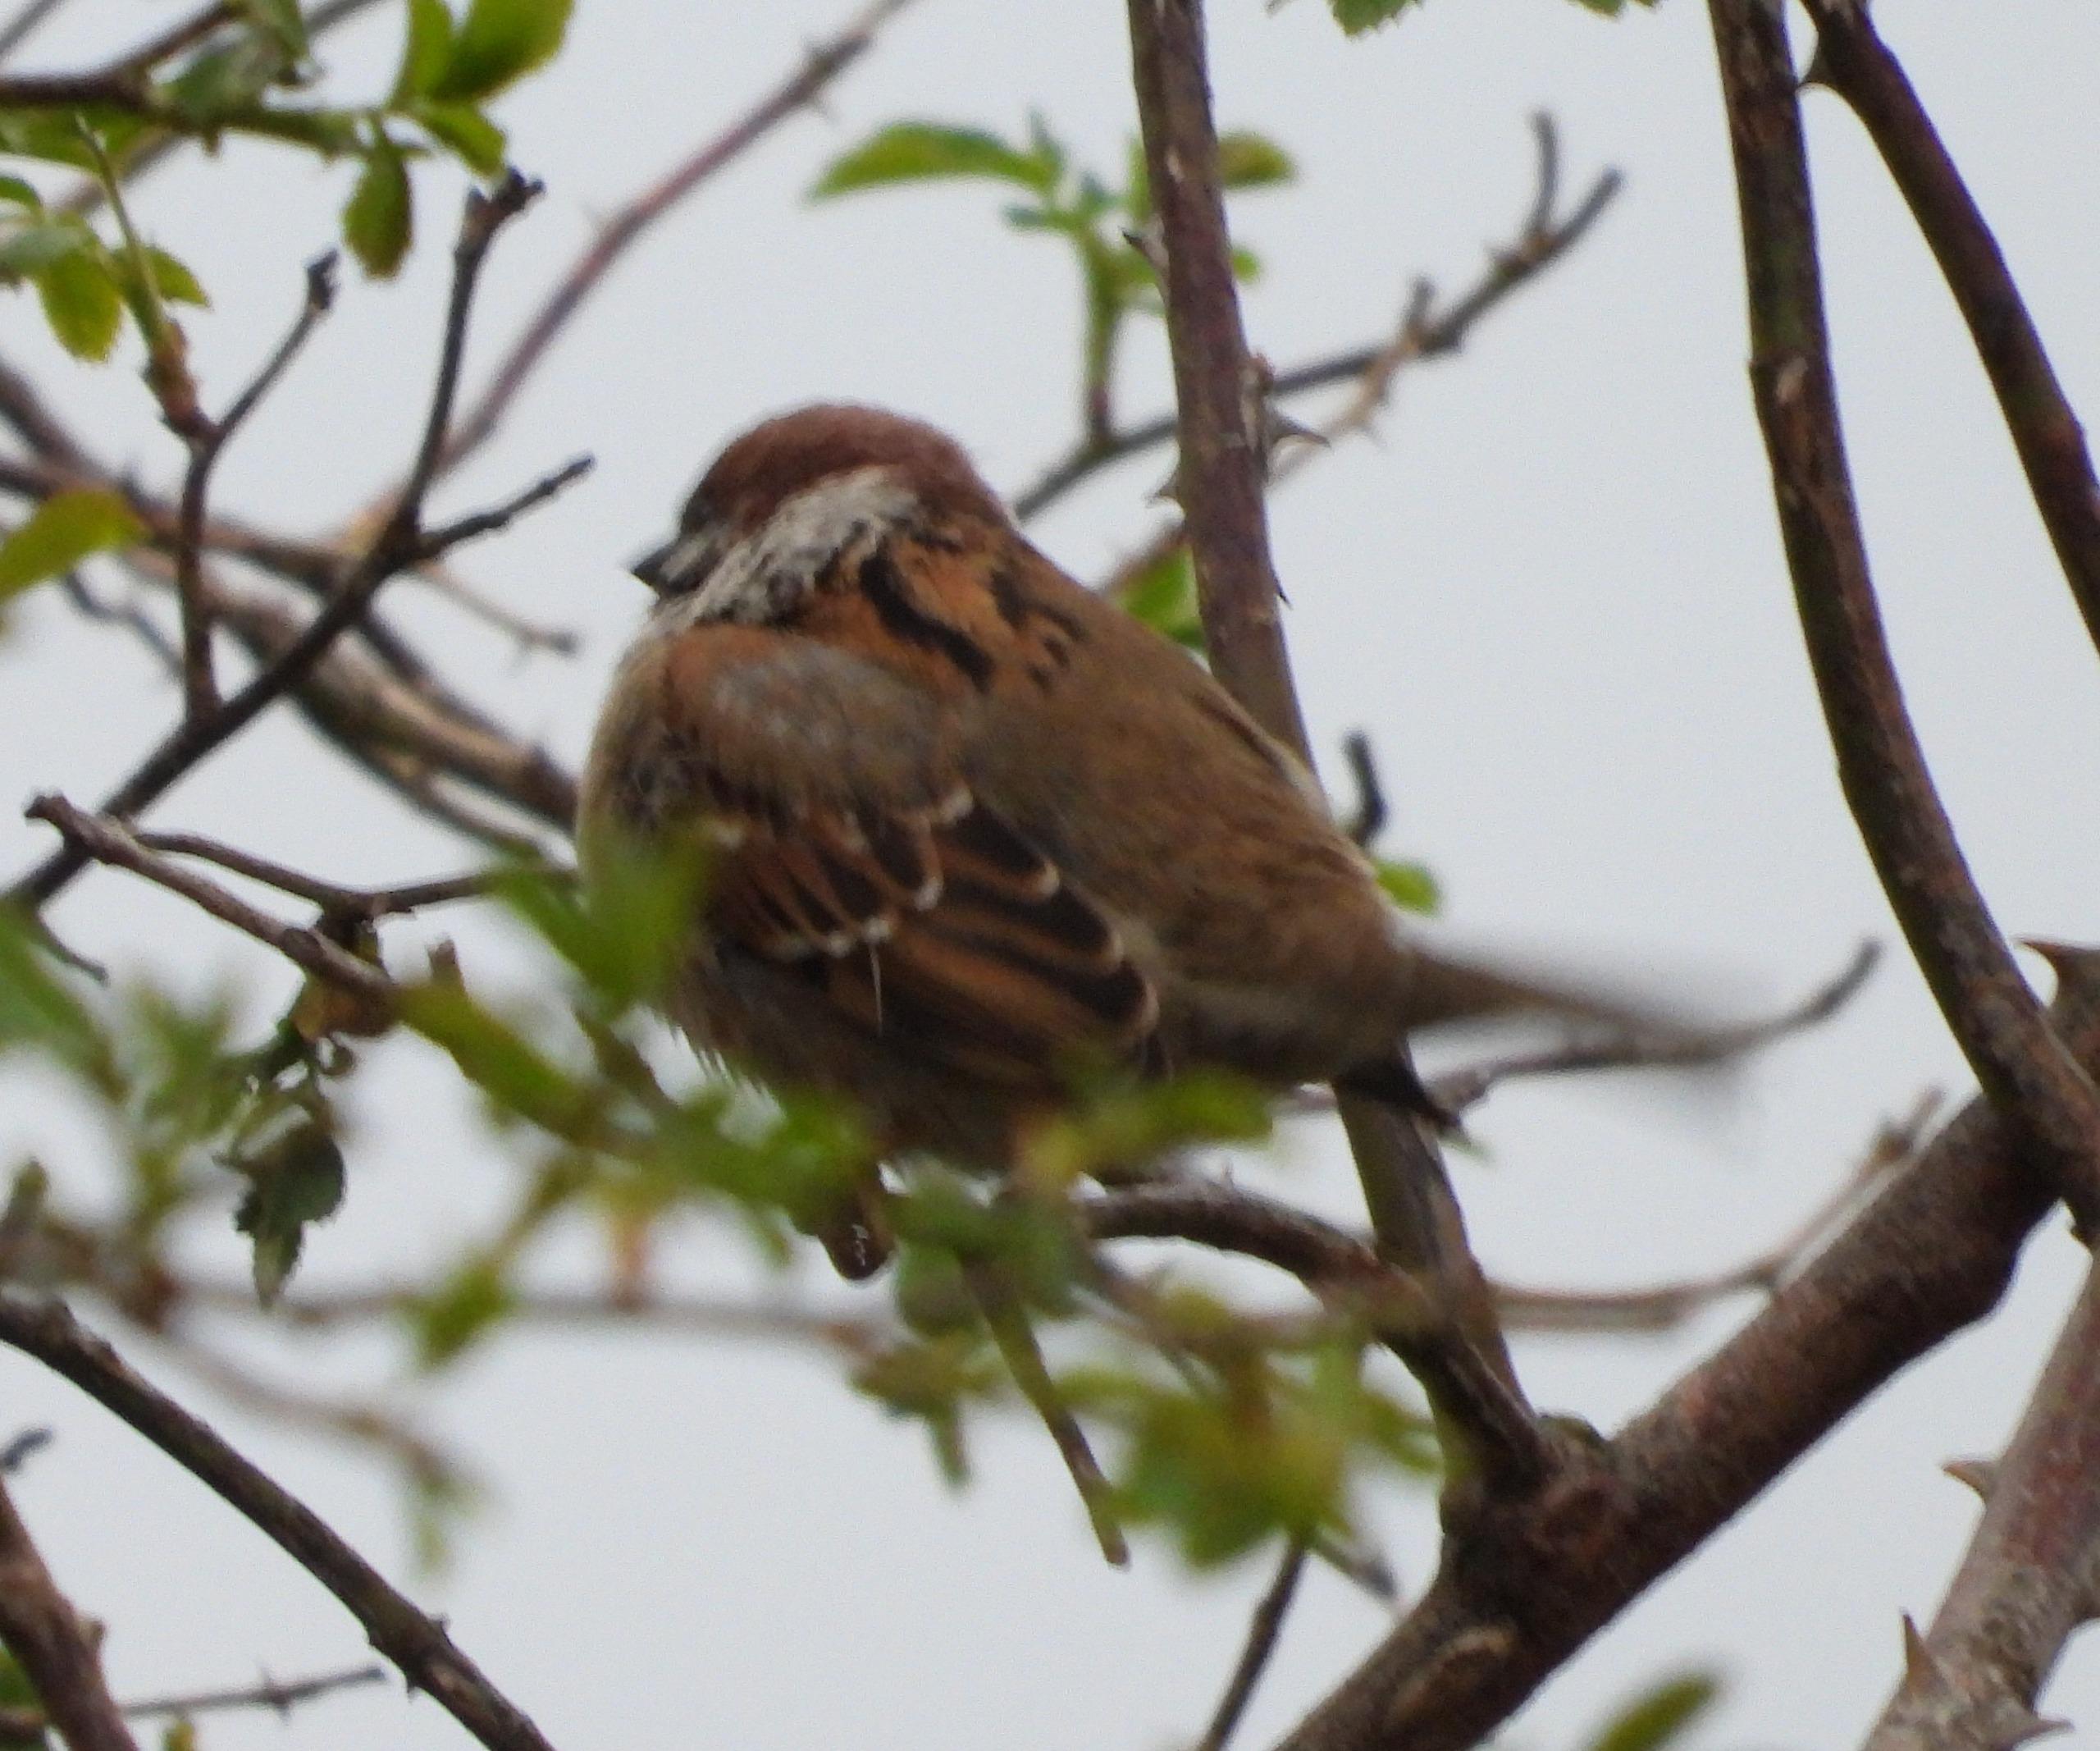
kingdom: Animalia
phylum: Chordata
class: Aves
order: Passeriformes
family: Passeridae
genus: Passer
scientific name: Passer montanus
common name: Skovspurv
